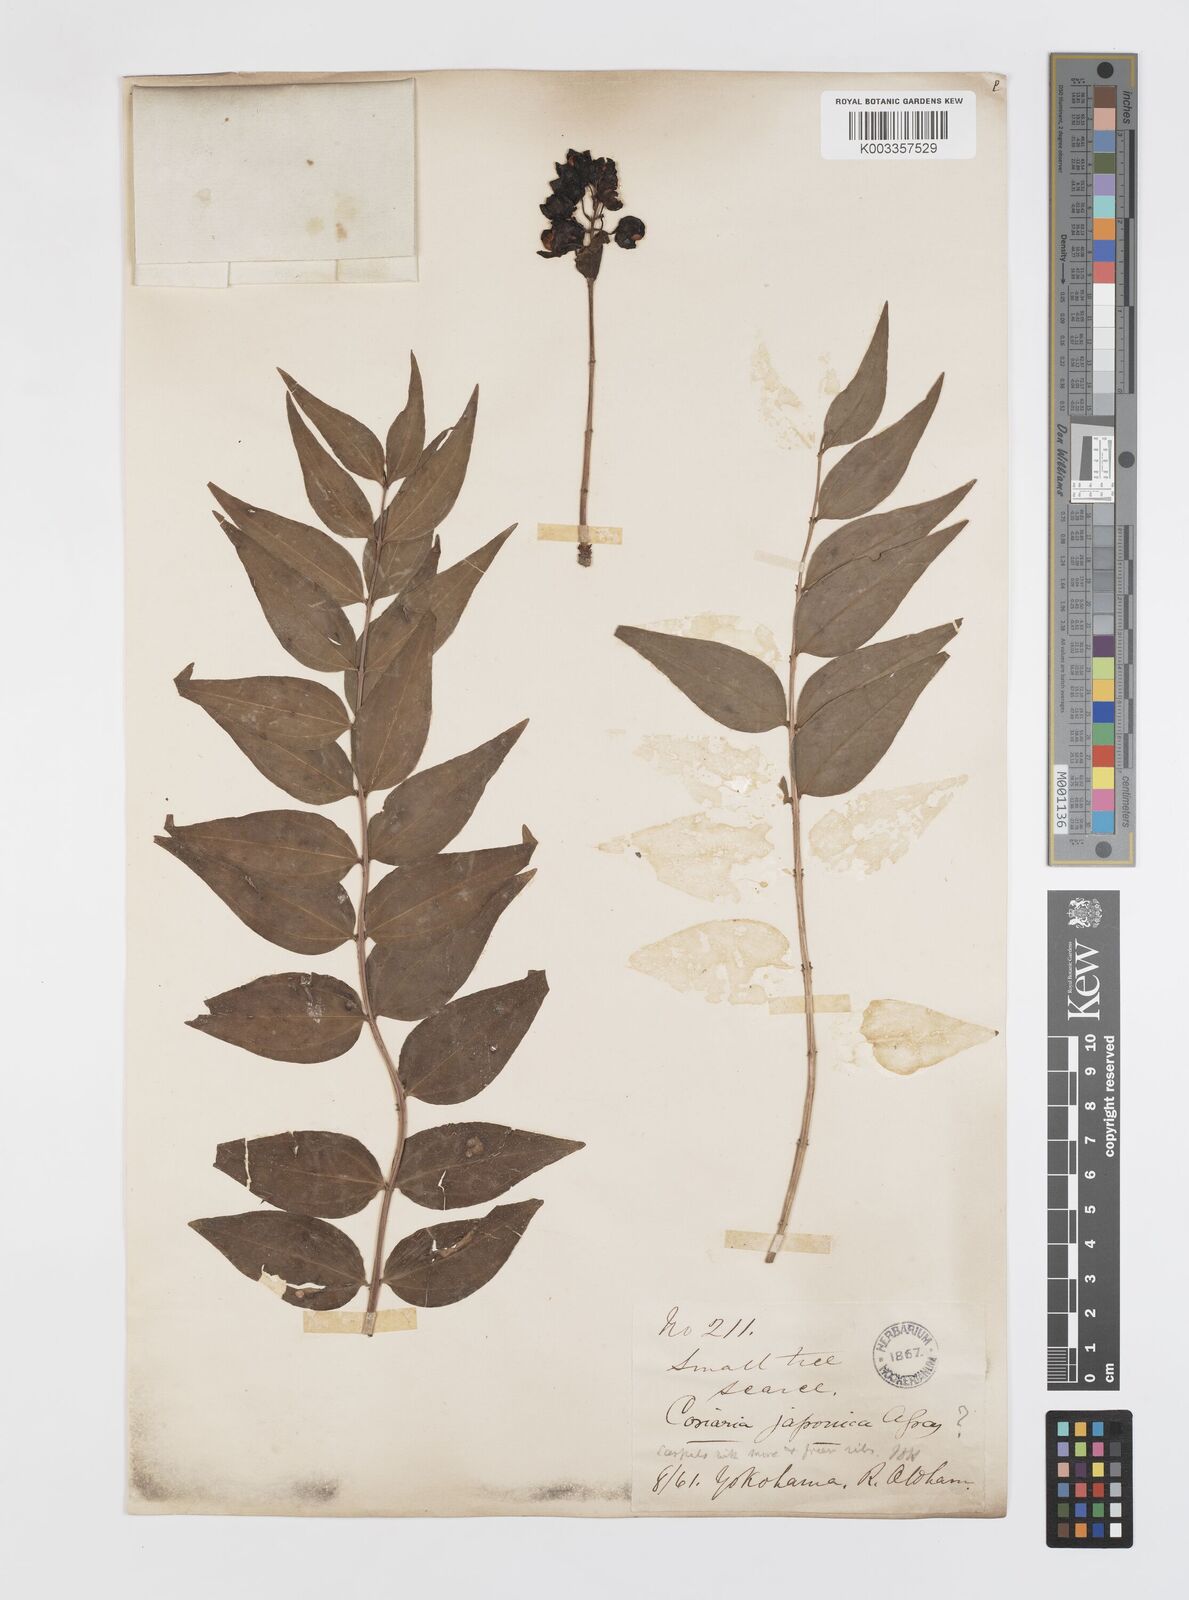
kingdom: Plantae
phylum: Tracheophyta
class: Magnoliopsida
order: Cucurbitales
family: Coriariaceae
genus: Coriaria
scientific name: Coriaria japonica
